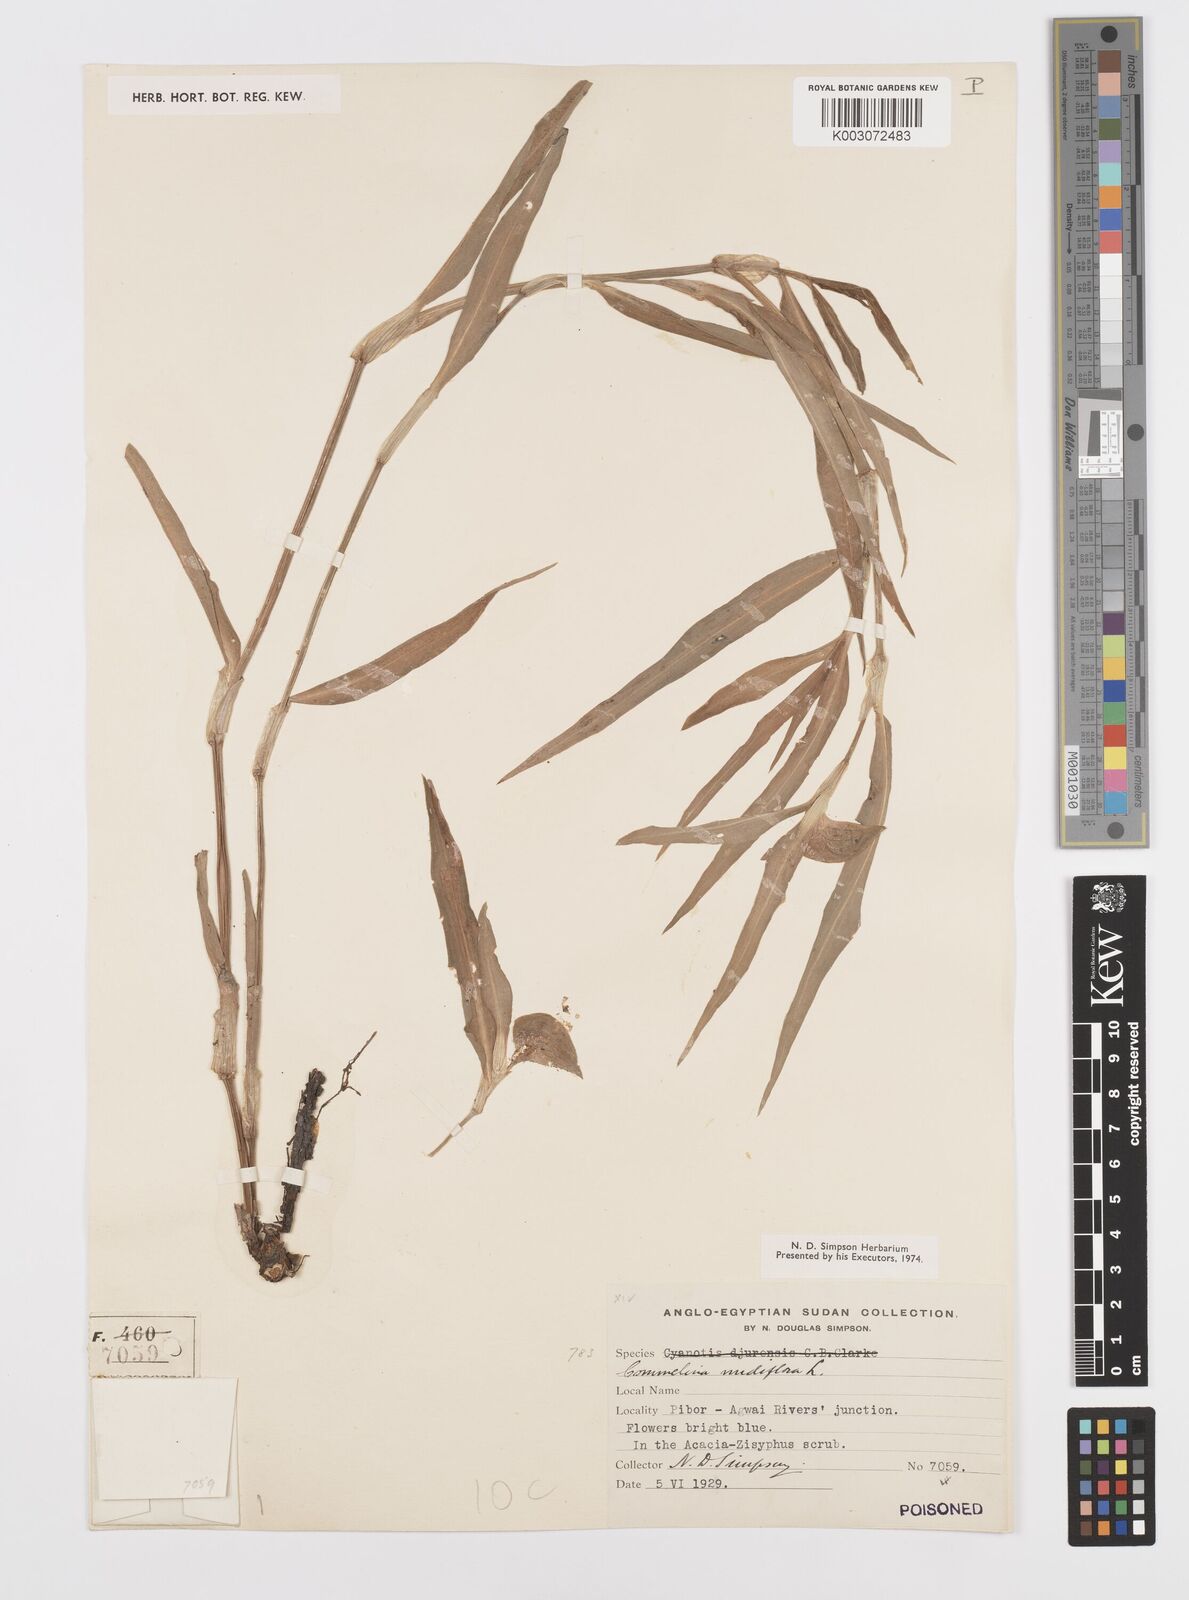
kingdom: Plantae
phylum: Tracheophyta
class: Liliopsida
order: Commelinales
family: Commelinaceae
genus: Commelina
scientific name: Commelina diffusa
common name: Climbing dayflower
